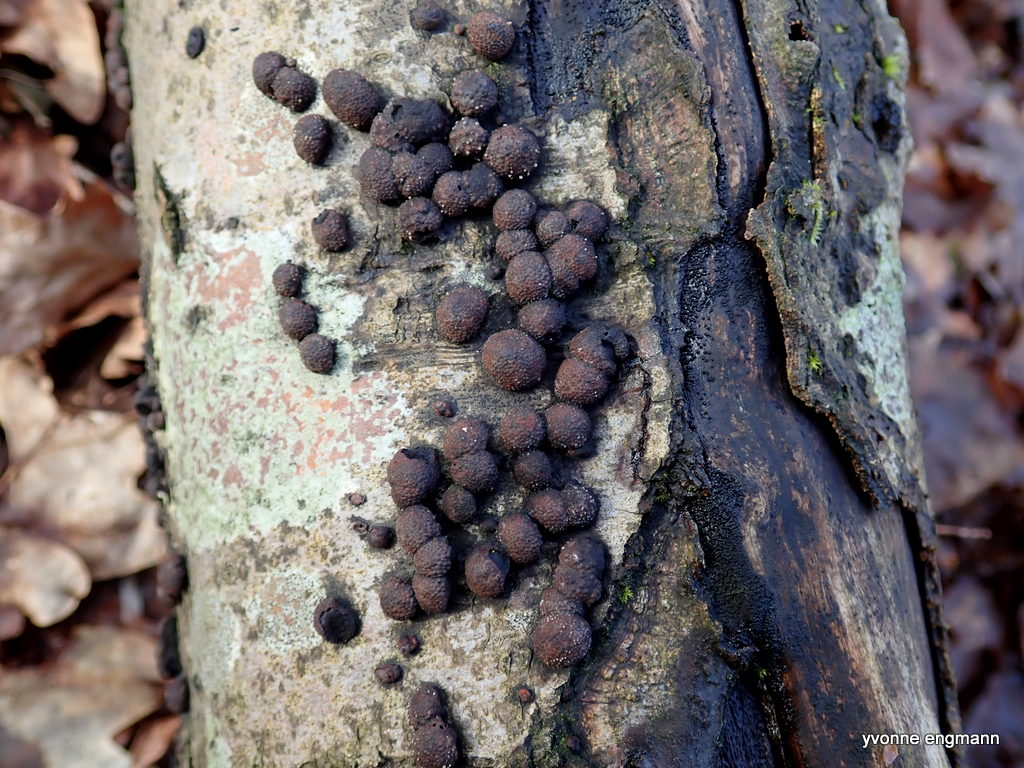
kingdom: Fungi
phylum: Ascomycota
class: Sordariomycetes
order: Xylariales
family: Hypoxylaceae
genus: Hypoxylon
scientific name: Hypoxylon fragiforme
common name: kuljordbær
